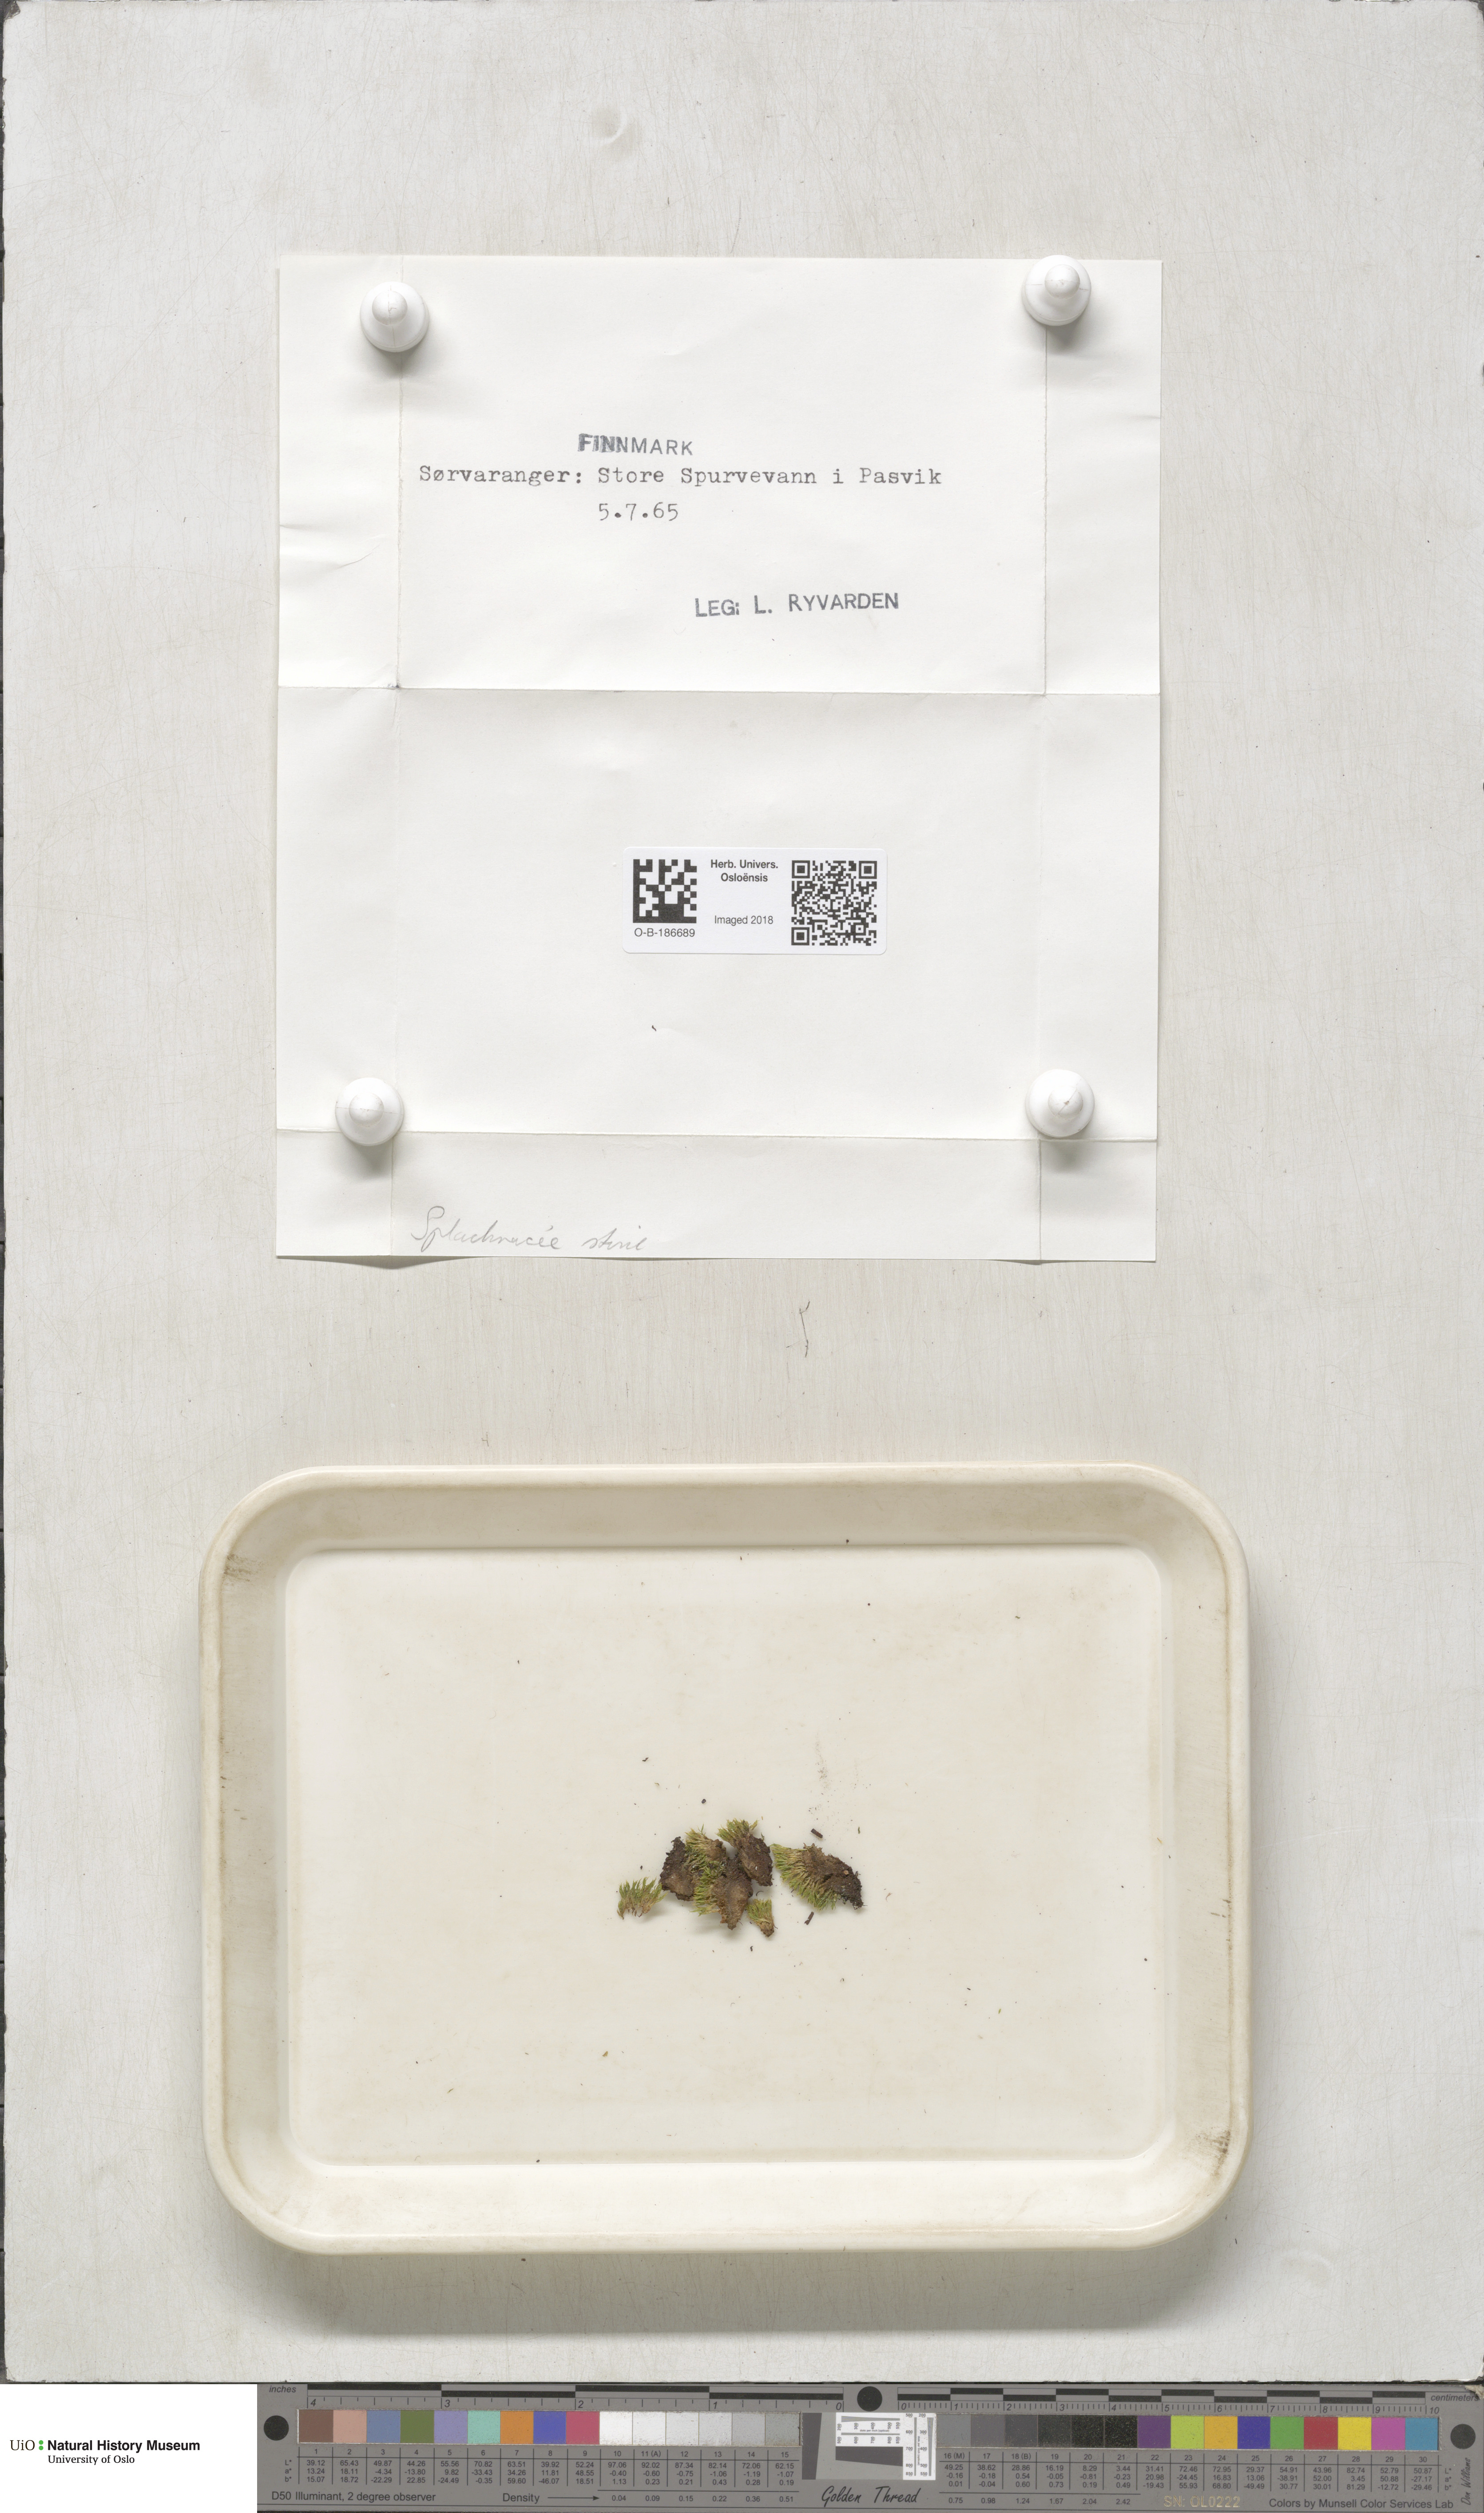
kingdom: Plantae
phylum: Bryophyta
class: Bryopsida
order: Splachnales
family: Splachnaceae
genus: Splachnum
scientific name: Splachnum
